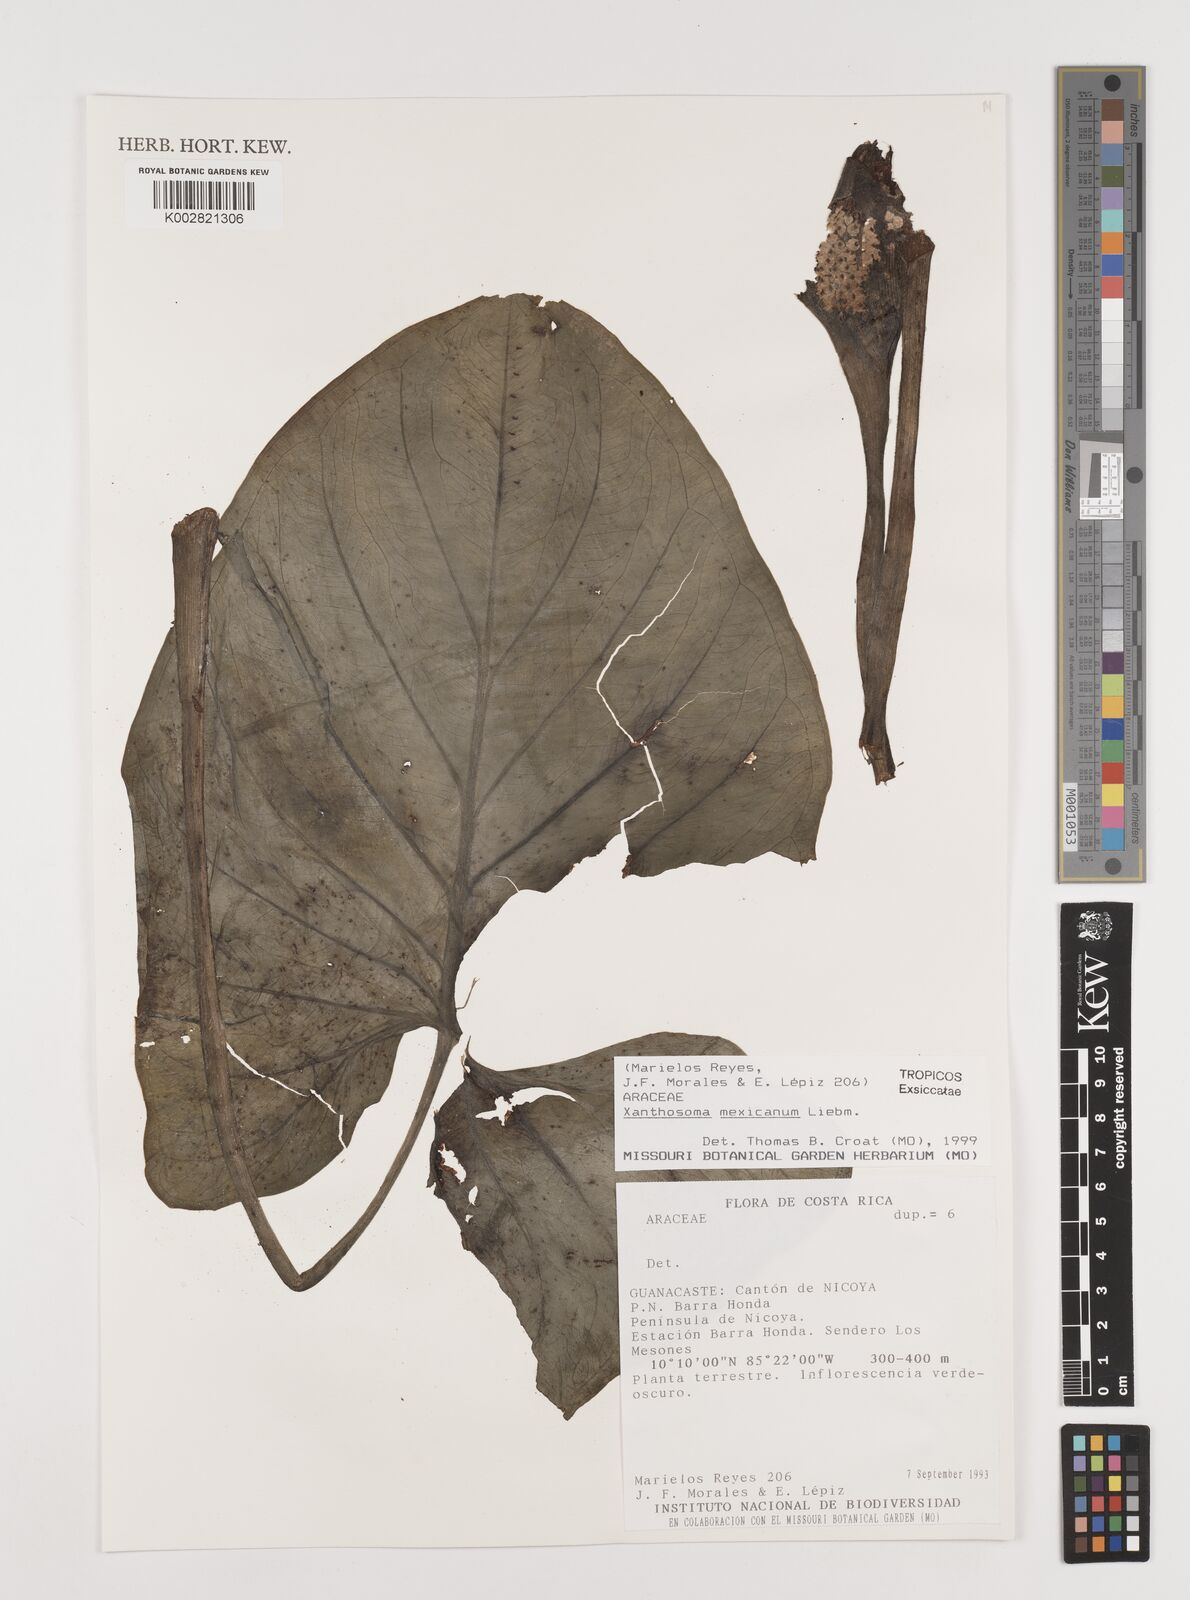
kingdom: Plantae
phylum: Tracheophyta
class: Liliopsida
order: Alismatales
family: Araceae
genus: Xanthosoma
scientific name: Xanthosoma mexicanum
